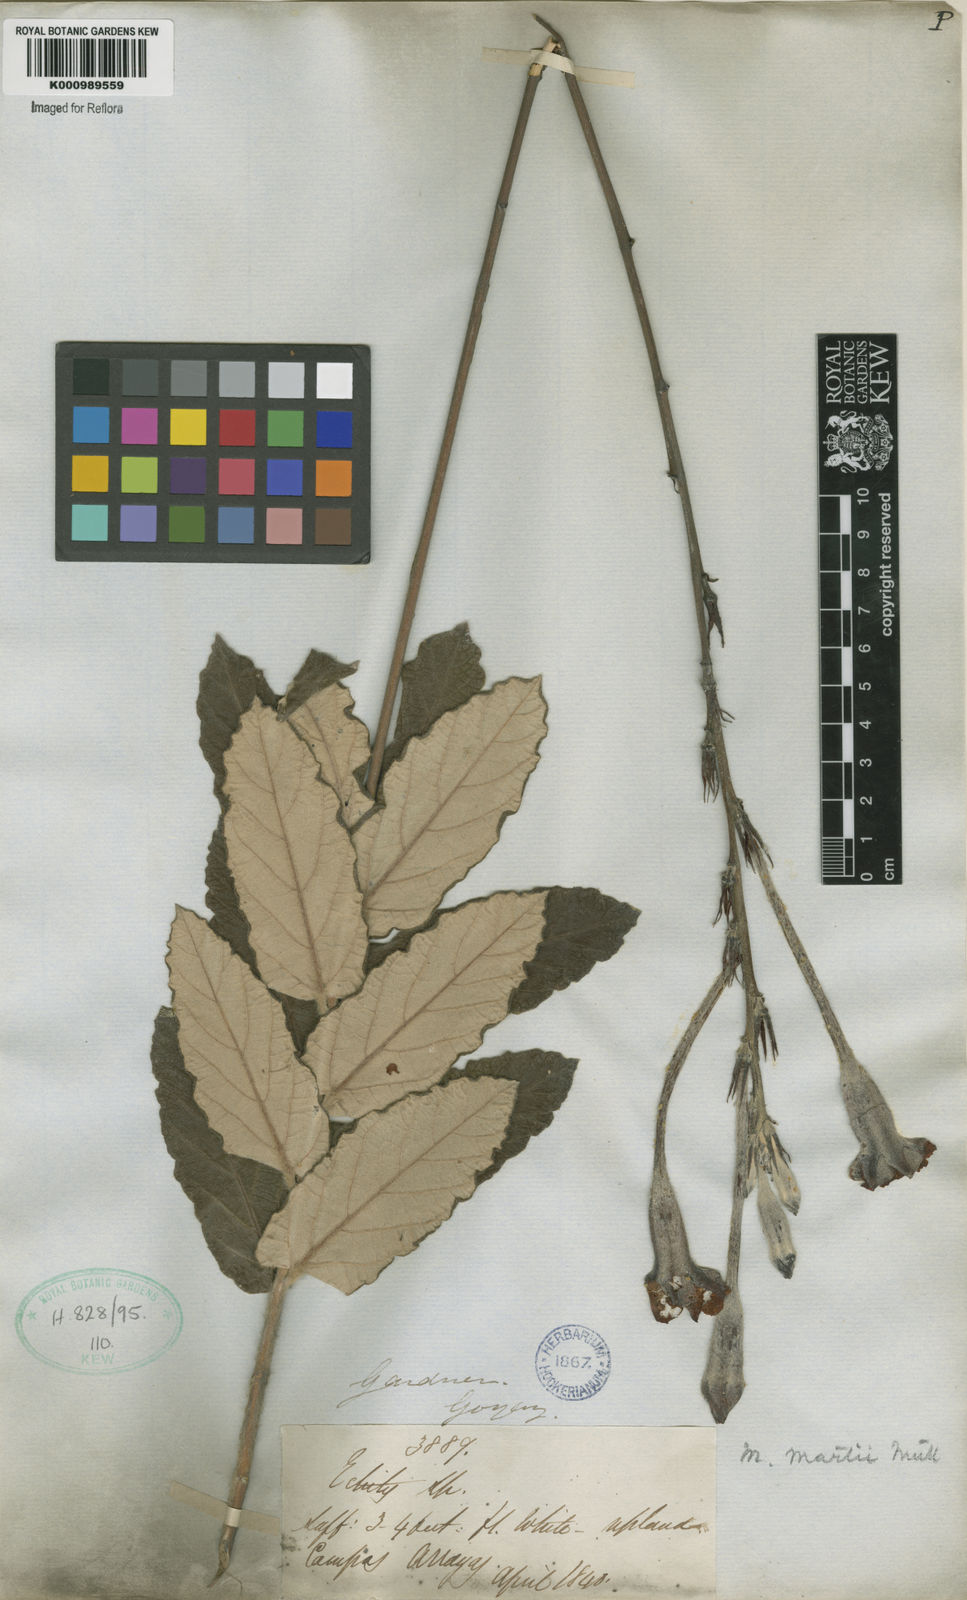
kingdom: Plantae
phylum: Tracheophyta
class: Magnoliopsida
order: Gentianales
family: Apocynaceae
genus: Mandevilla
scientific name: Mandevilla
